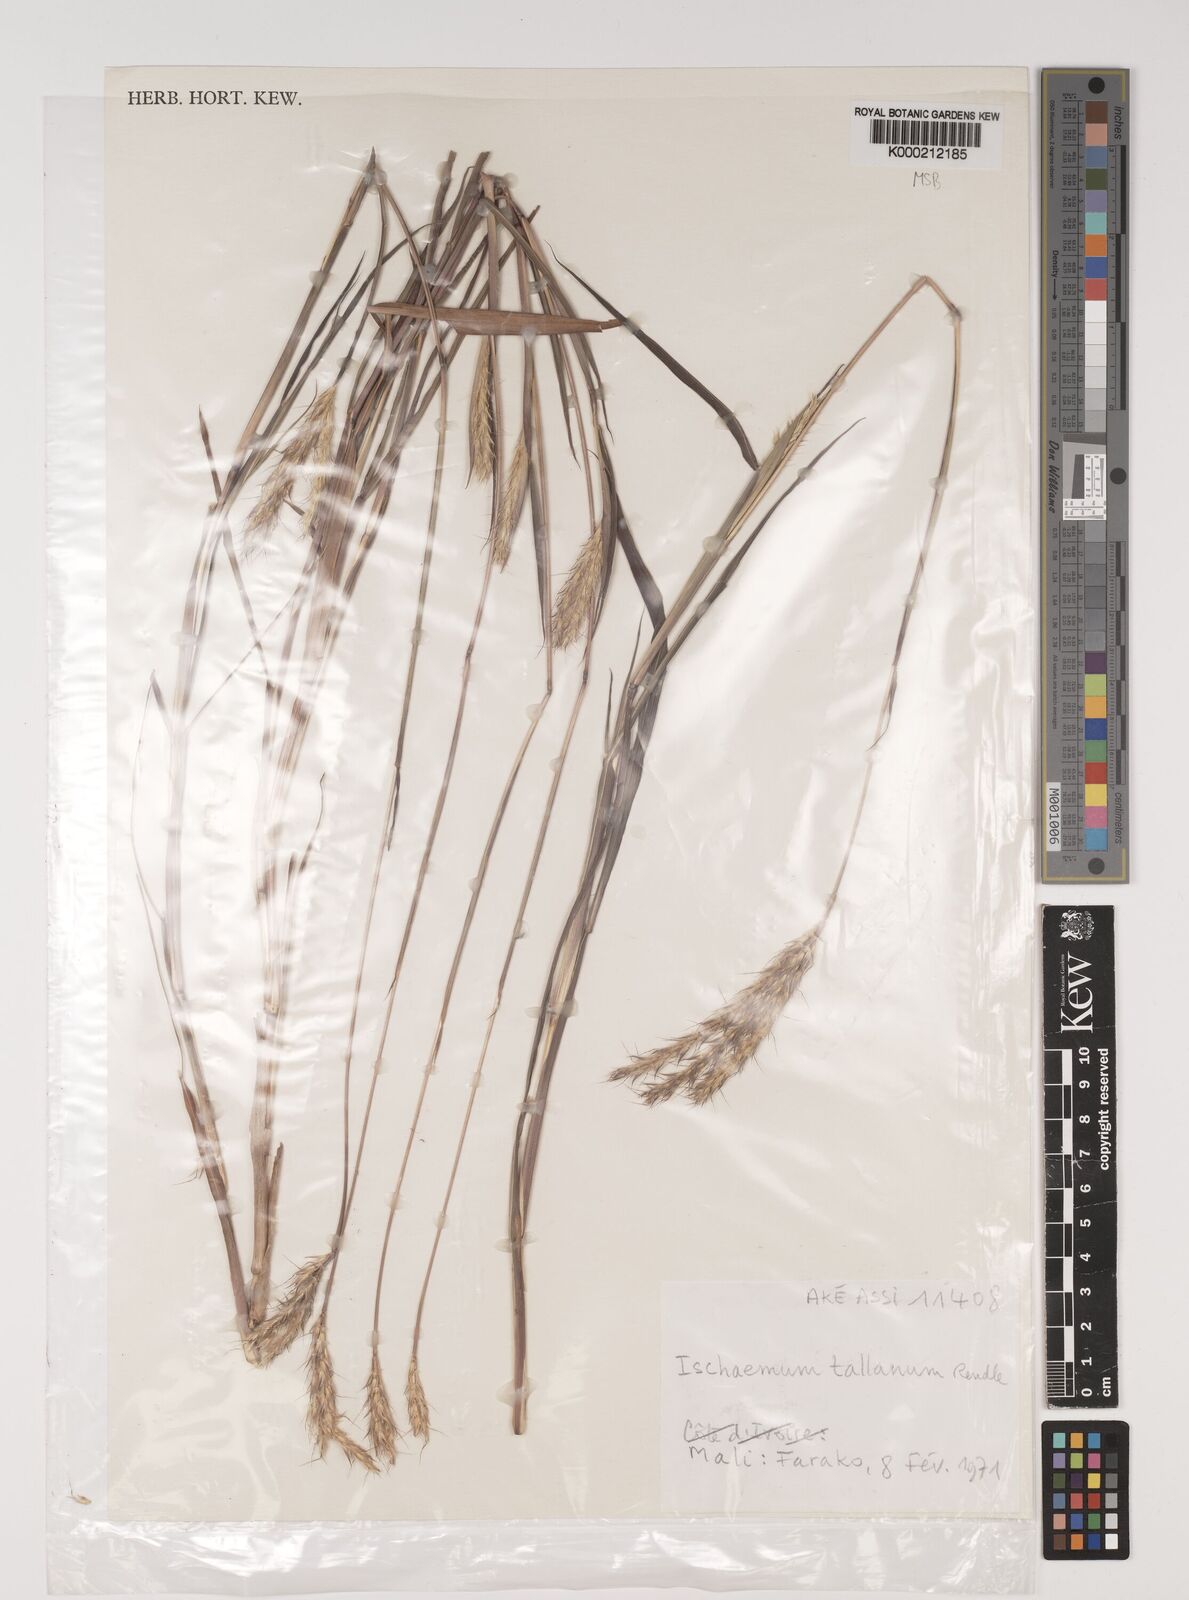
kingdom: Plantae
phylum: Tracheophyta
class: Liliopsida
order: Poales
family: Poaceae
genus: Ischaemum
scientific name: Ischaemum polystachyum
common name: Paddle grass
